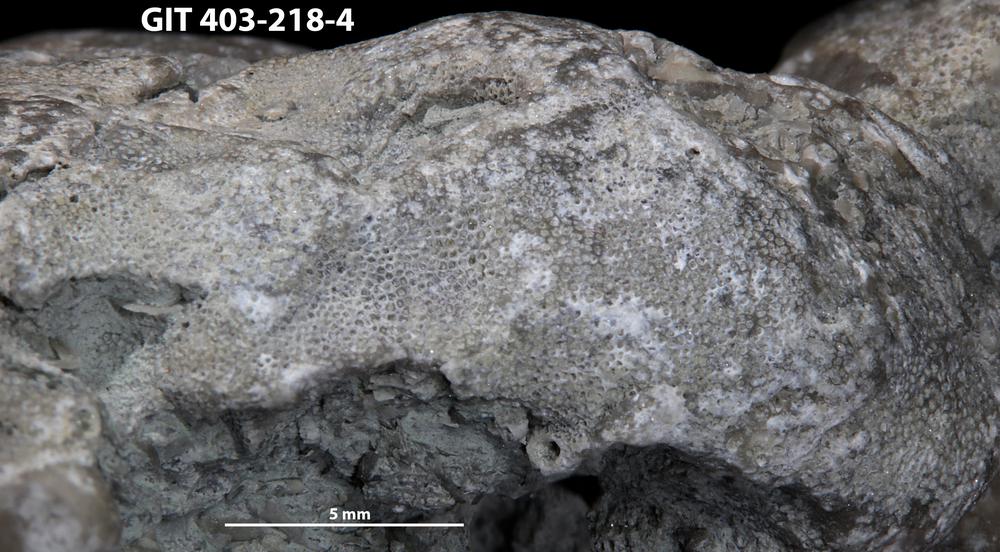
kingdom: Animalia
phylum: Bryozoa
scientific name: Bryozoa
